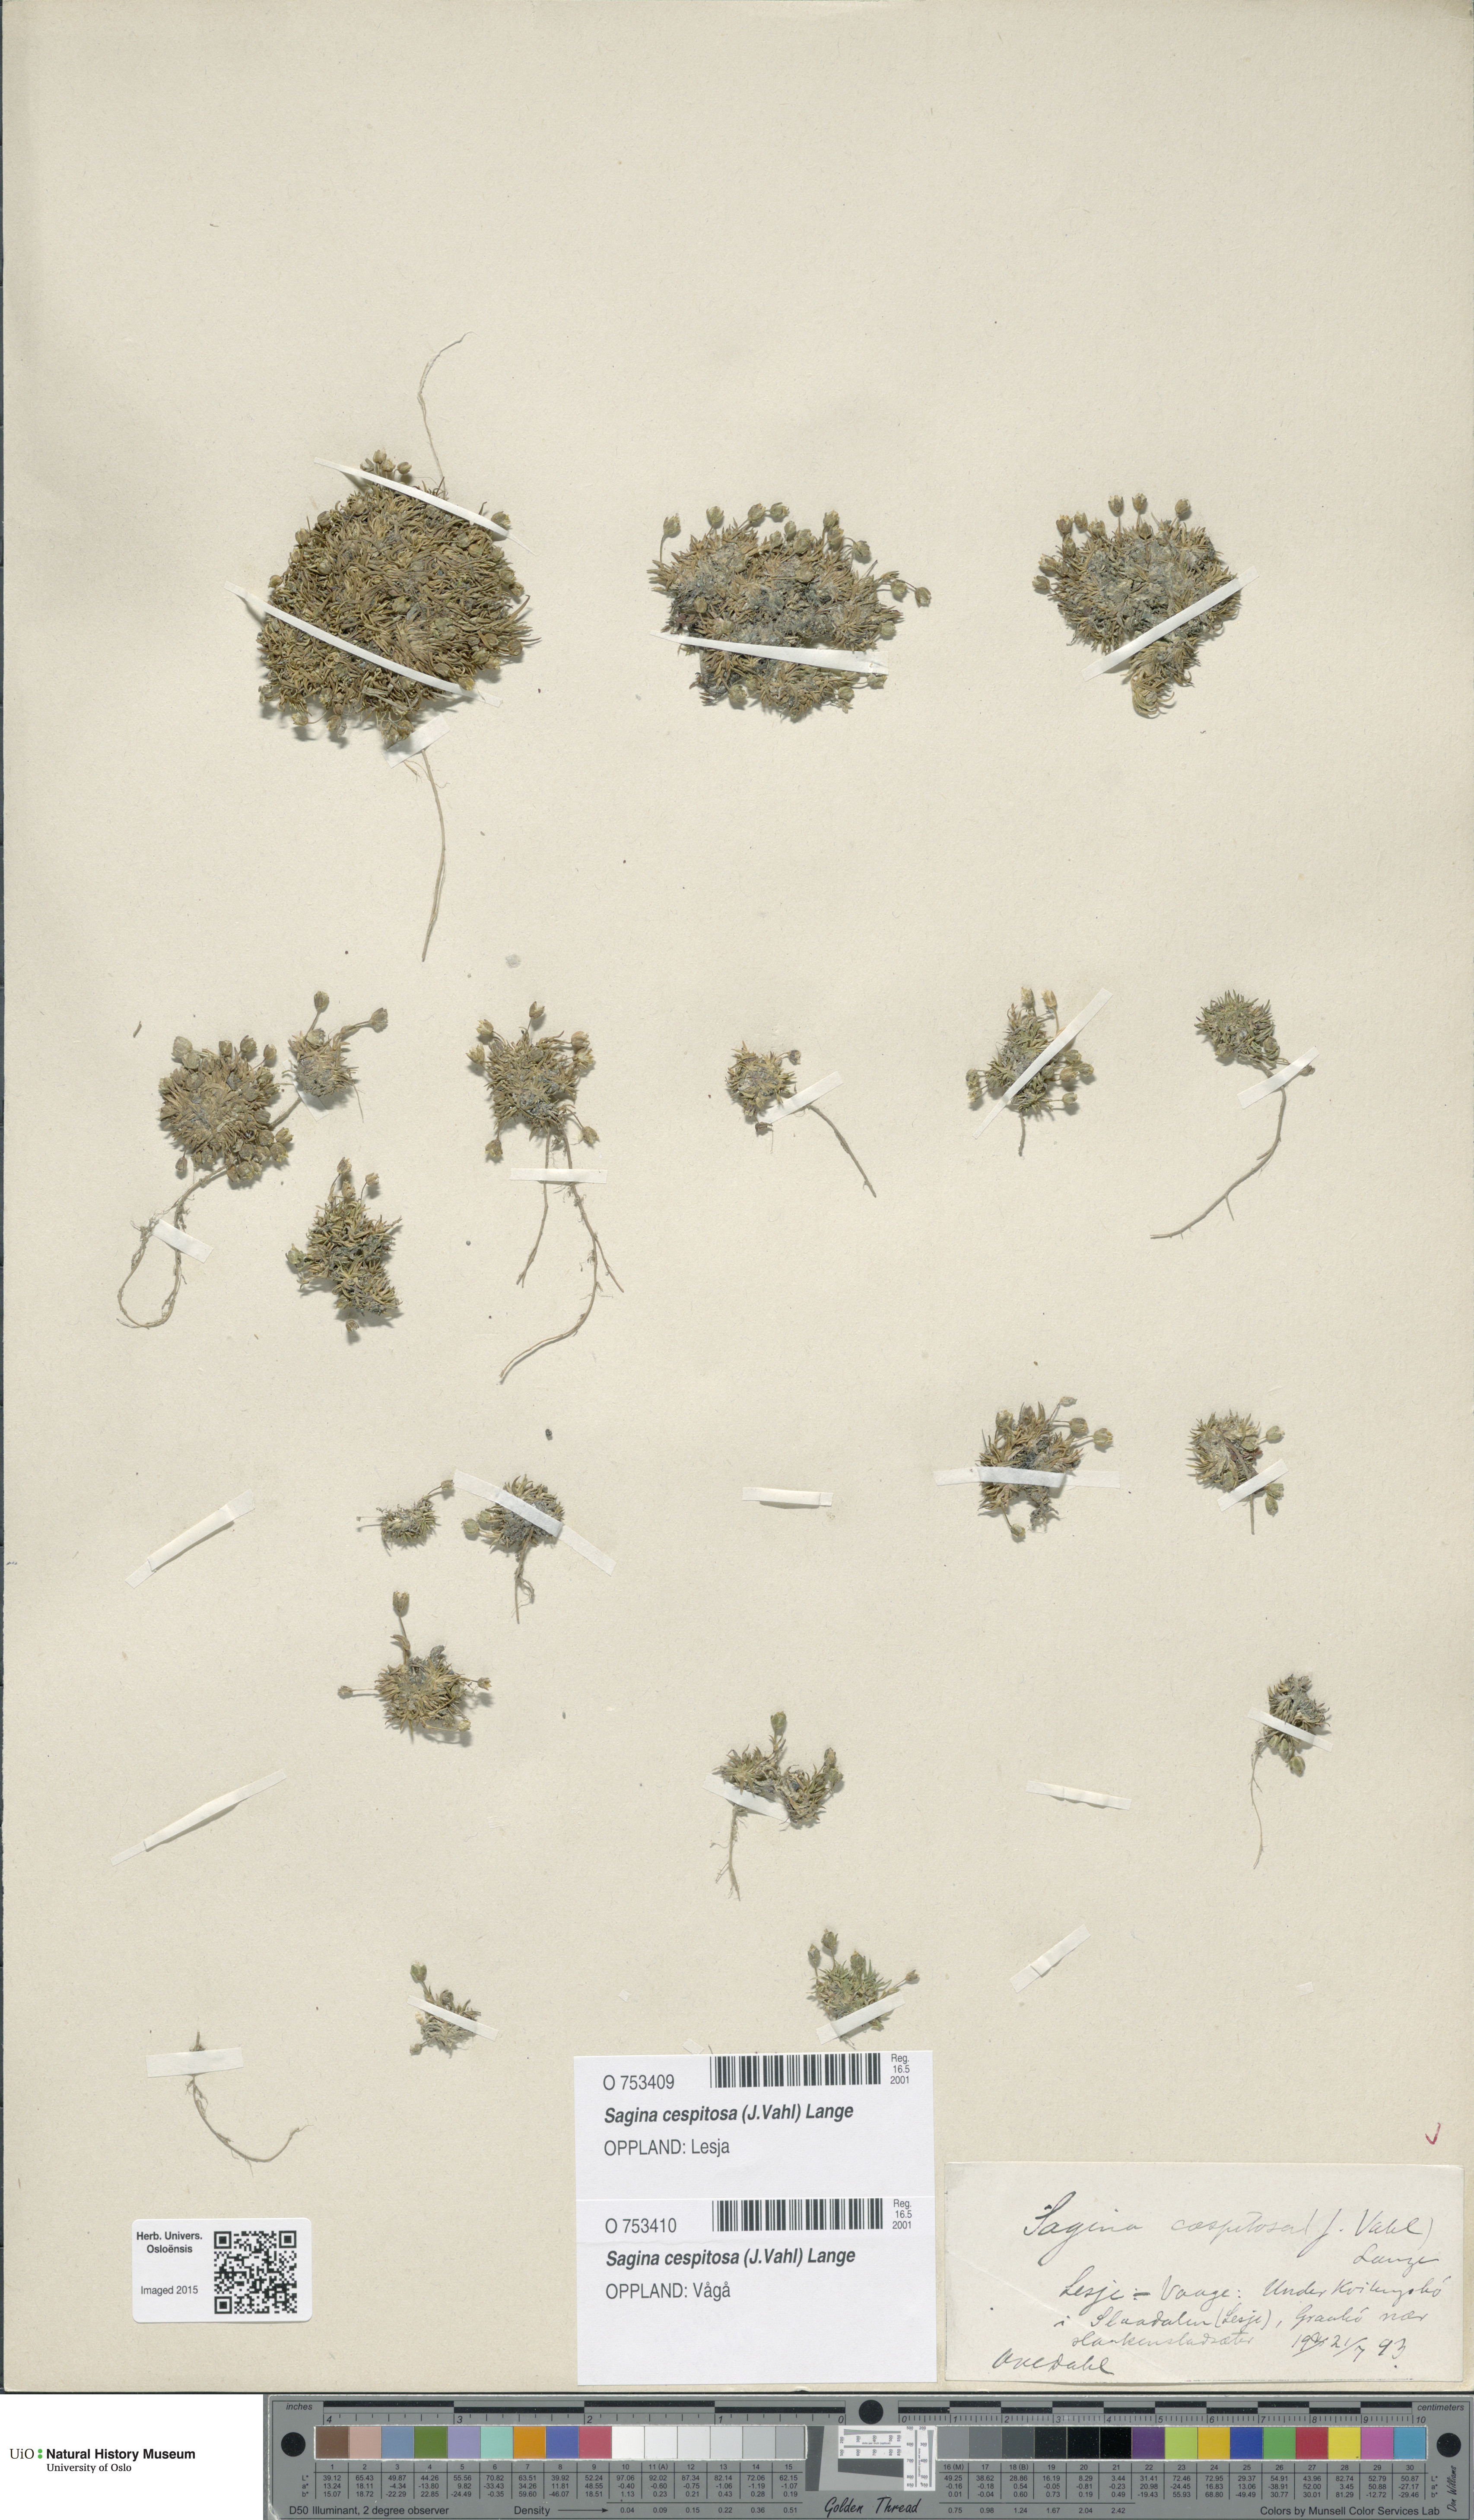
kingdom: Plantae
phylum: Tracheophyta
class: Magnoliopsida
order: Caryophyllales
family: Caryophyllaceae
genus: Sagina
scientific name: Sagina caespitosa
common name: Tufted pearlwort
